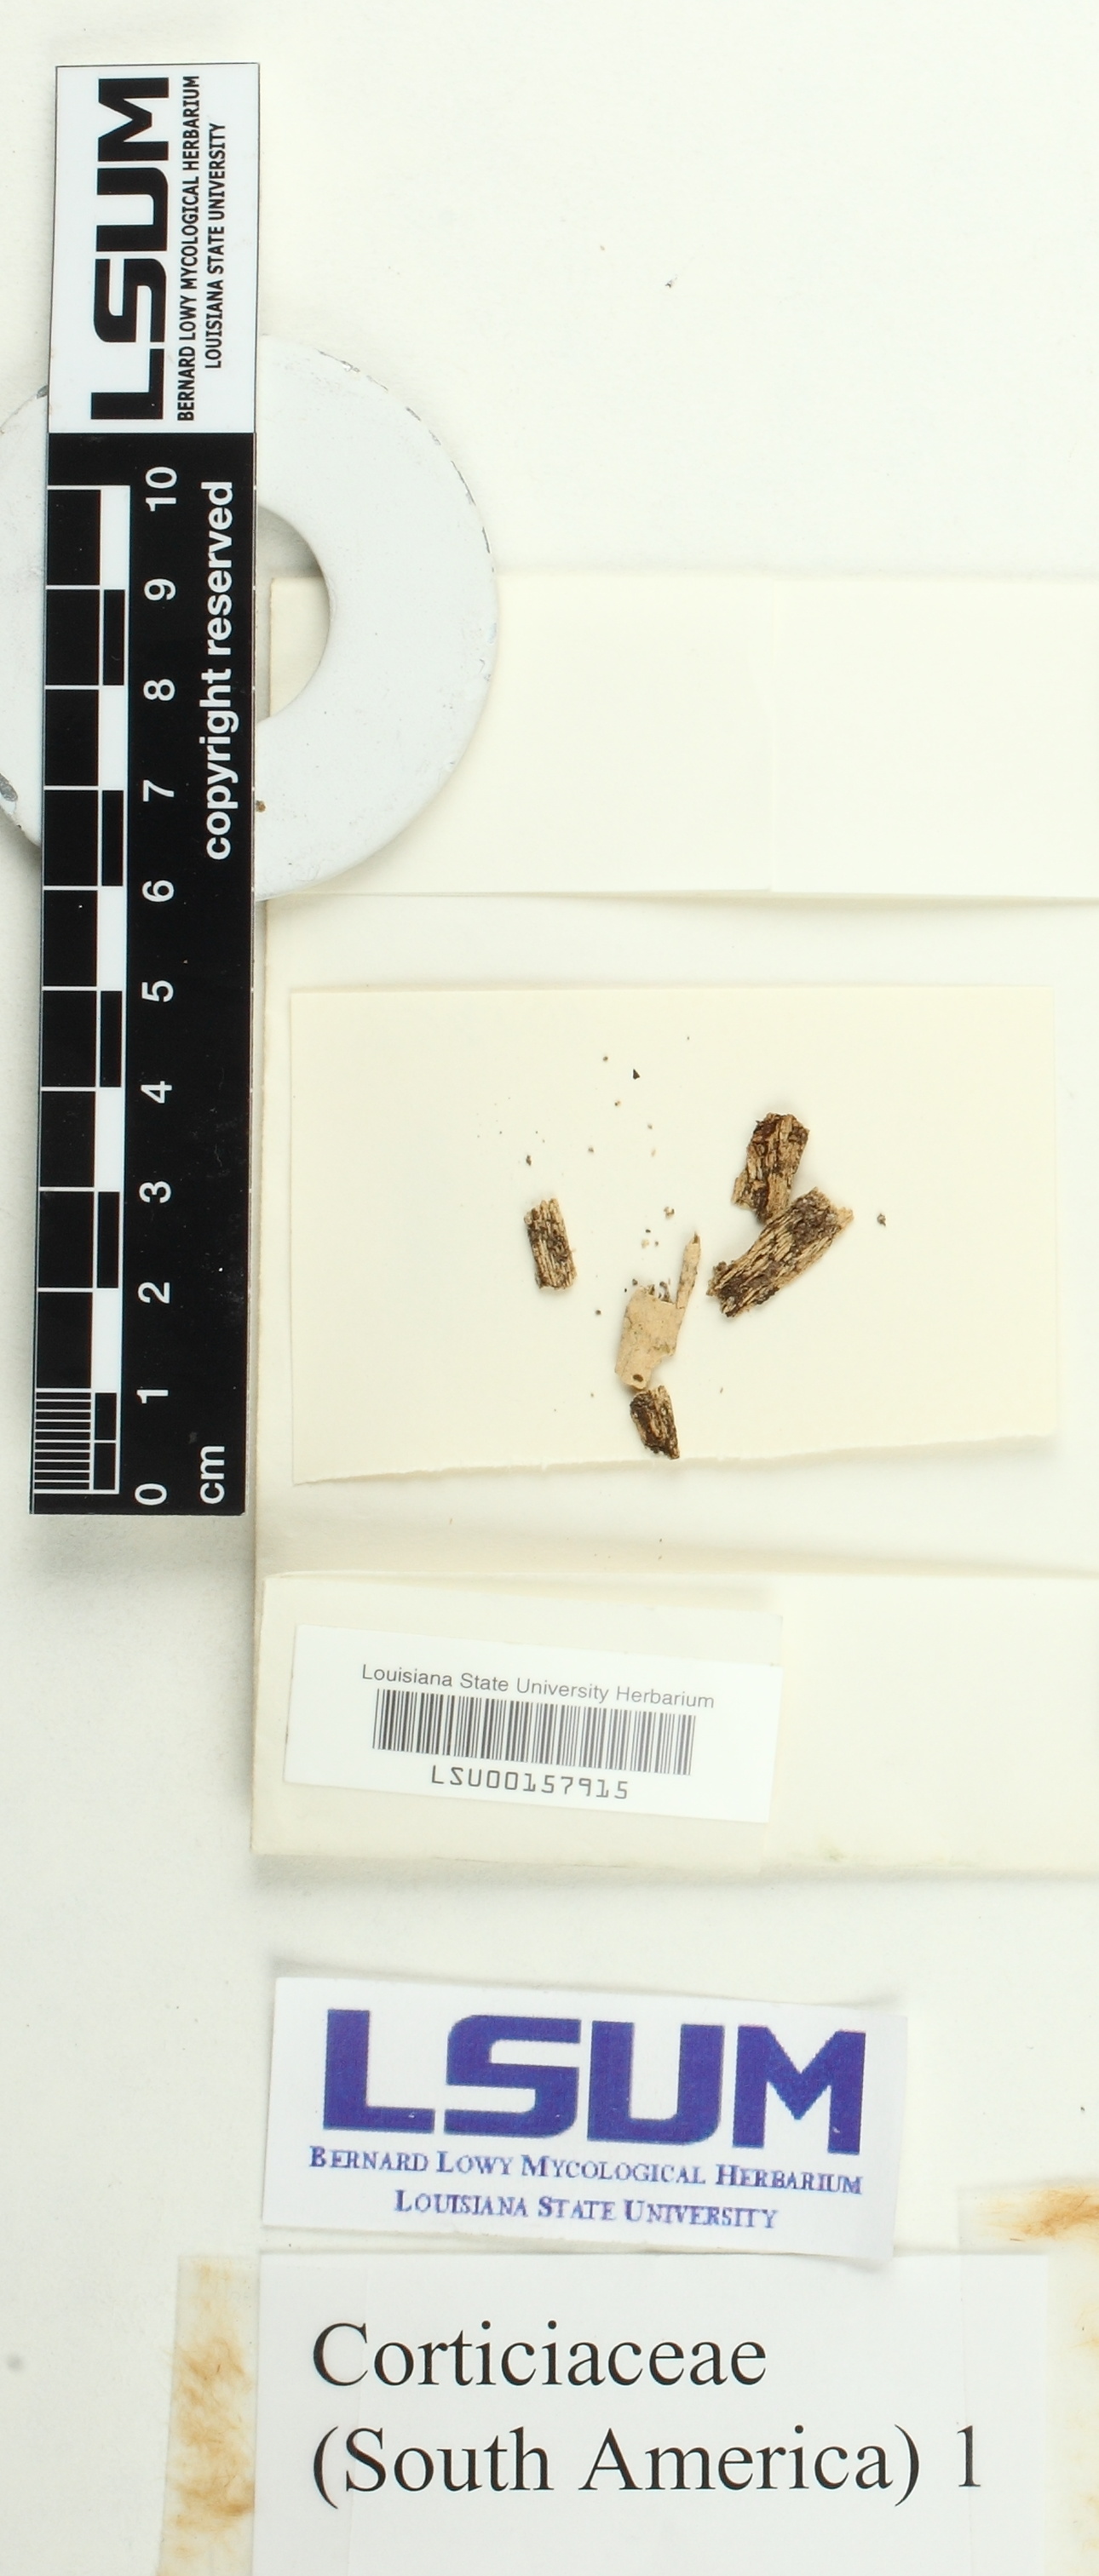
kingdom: Fungi
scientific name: Fungi
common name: Fungi
